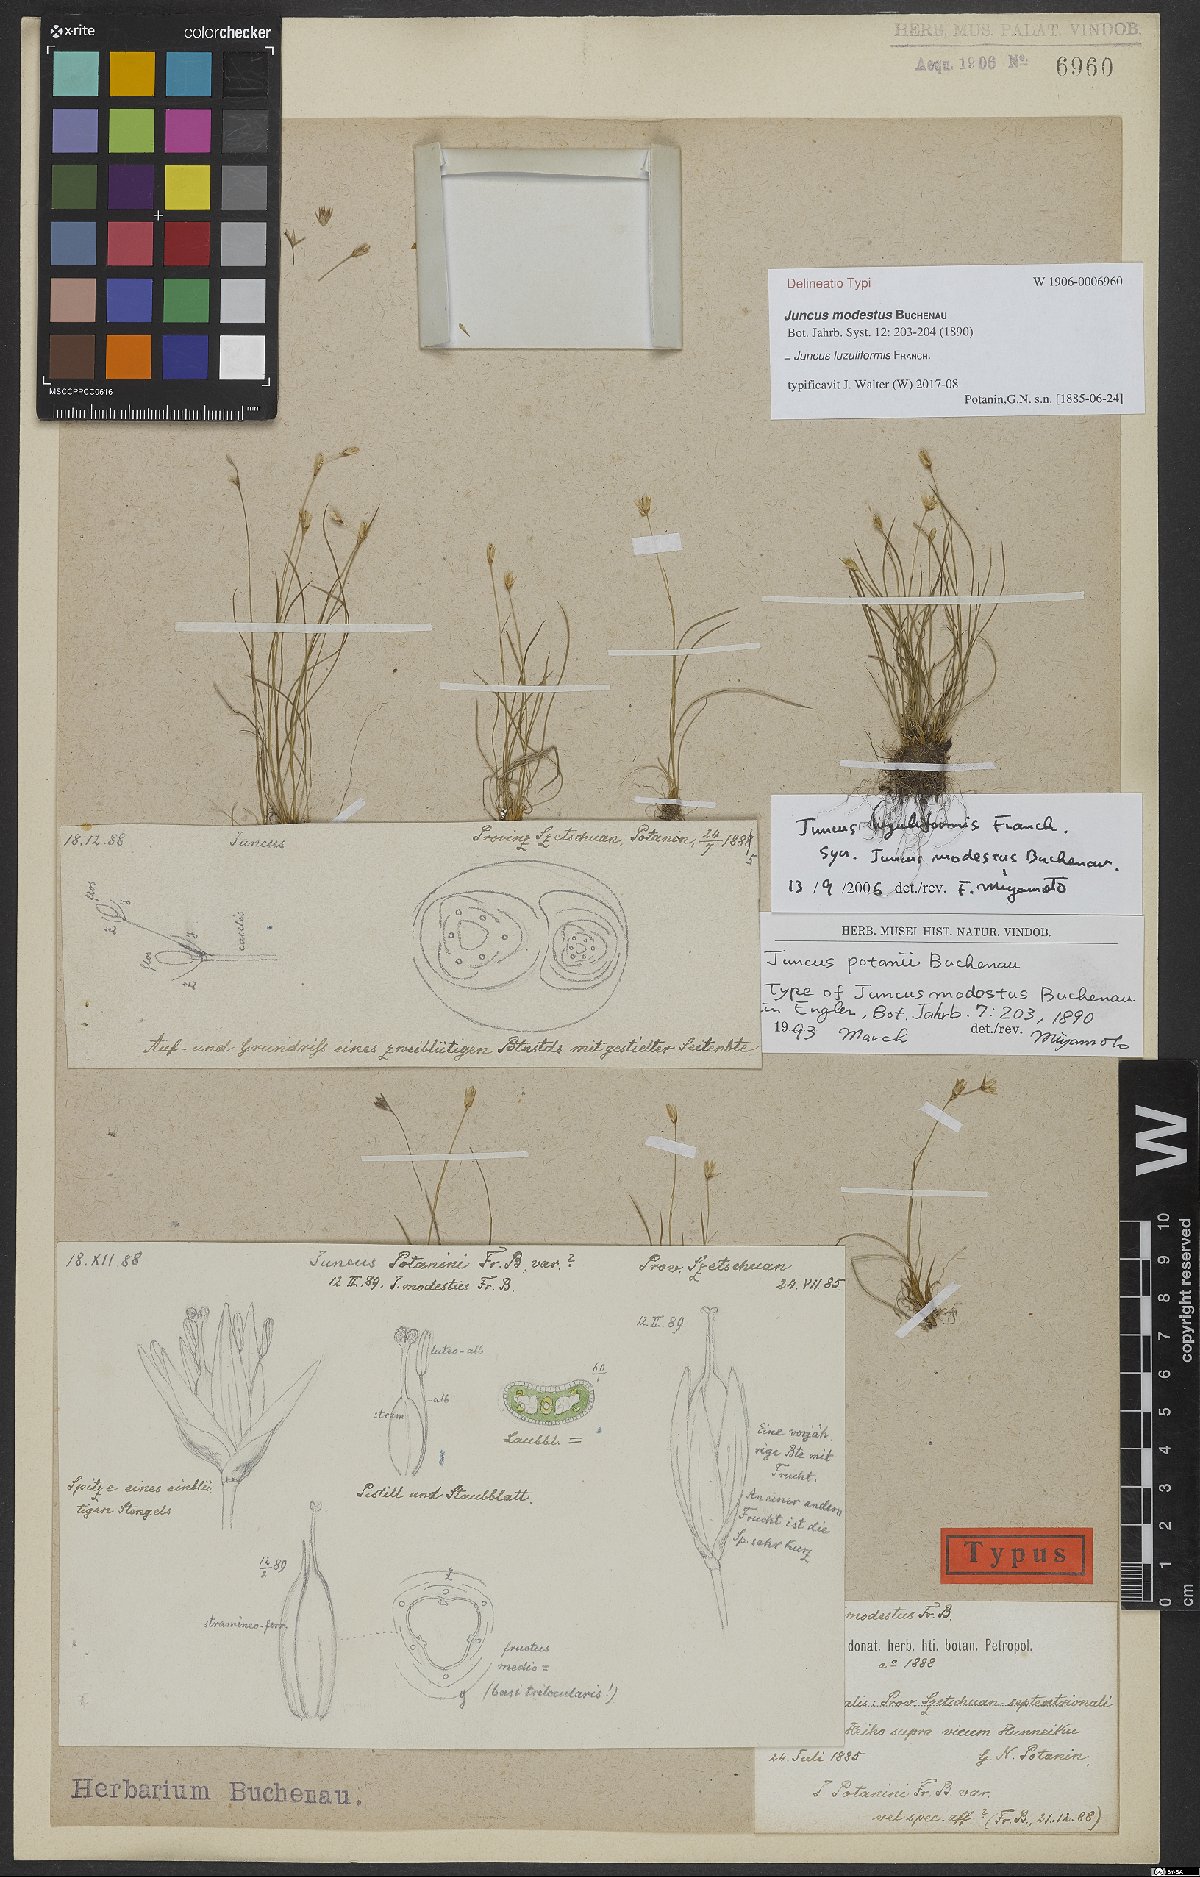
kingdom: Plantae
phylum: Tracheophyta
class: Liliopsida
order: Poales
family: Juncaceae
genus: Juncus
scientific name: Juncus luzuliformis
